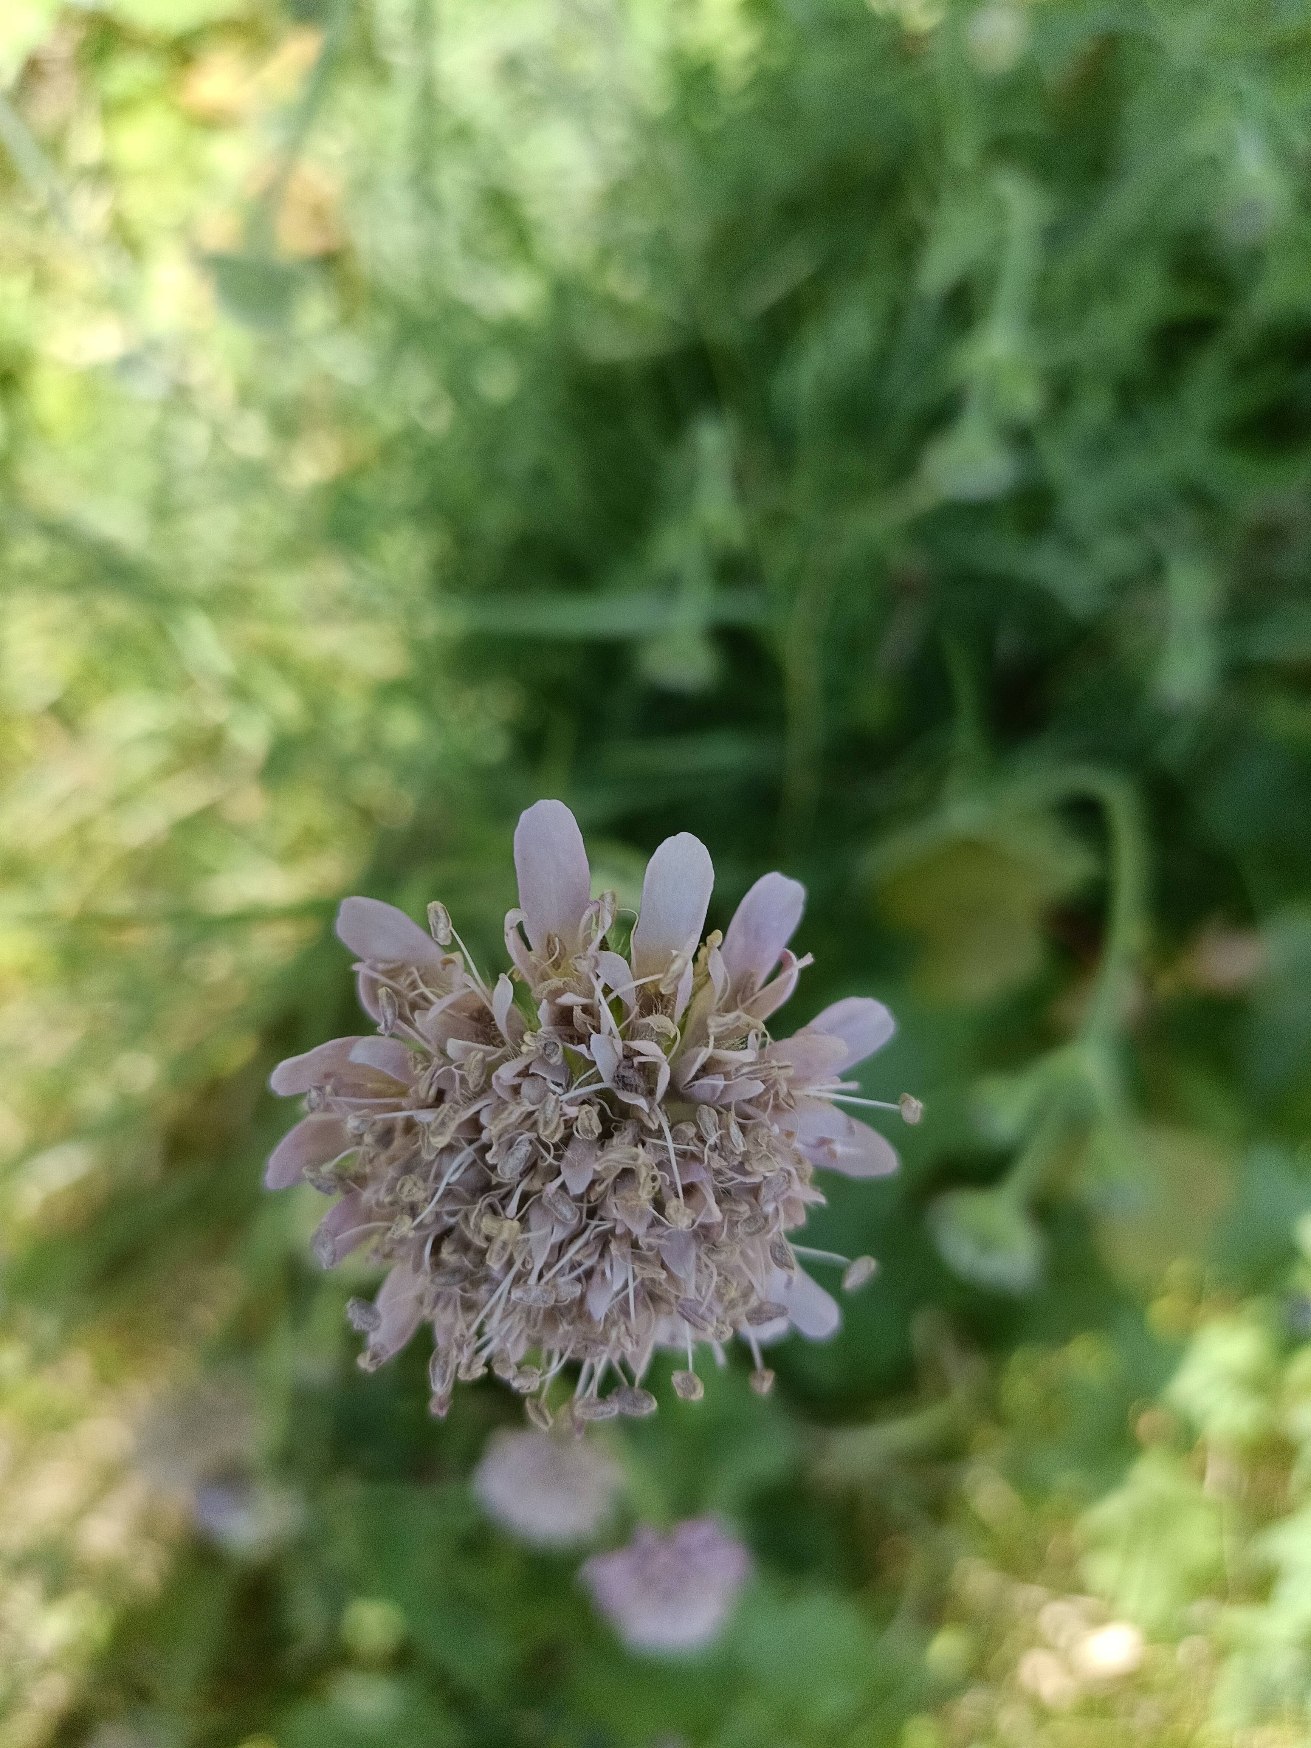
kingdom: Plantae
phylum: Tracheophyta
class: Magnoliopsida
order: Dipsacales
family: Caprifoliaceae
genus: Knautia
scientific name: Knautia arvensis
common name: Blåhat
